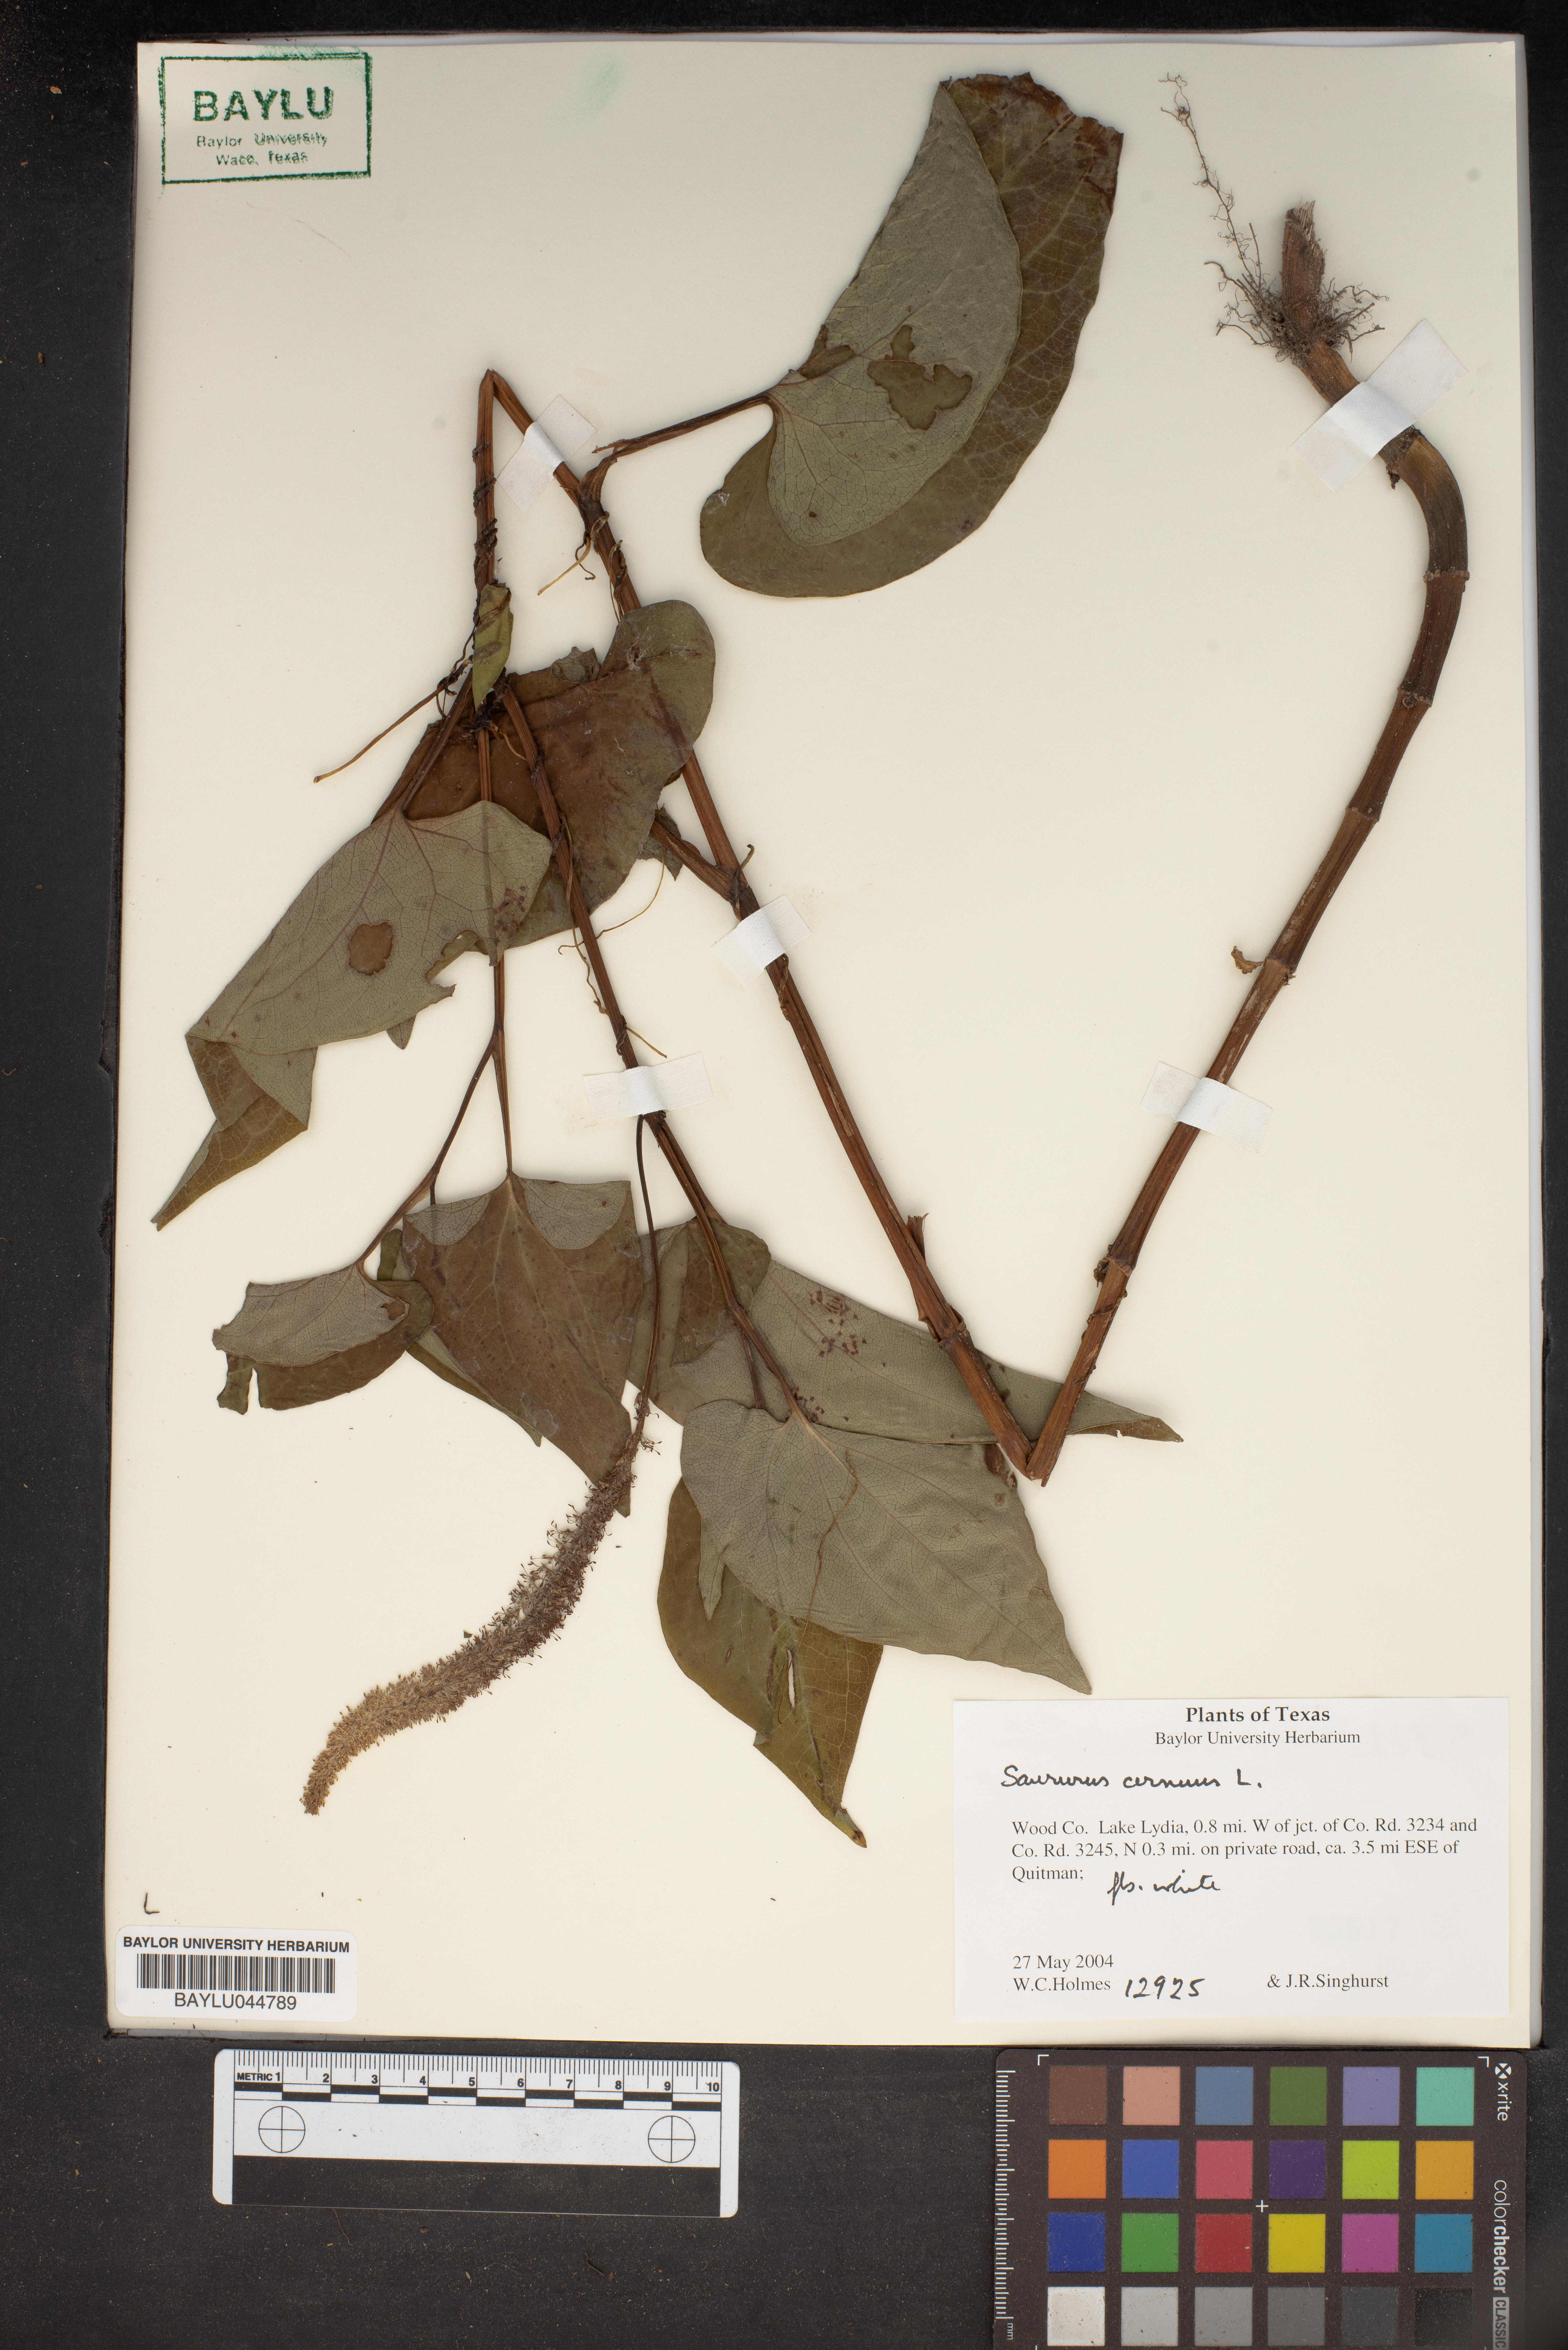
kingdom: Plantae
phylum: Tracheophyta
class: Magnoliopsida
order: Piperales
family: Saururaceae
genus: Saururus
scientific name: Saururus cernuus
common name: Lizard's-tail
